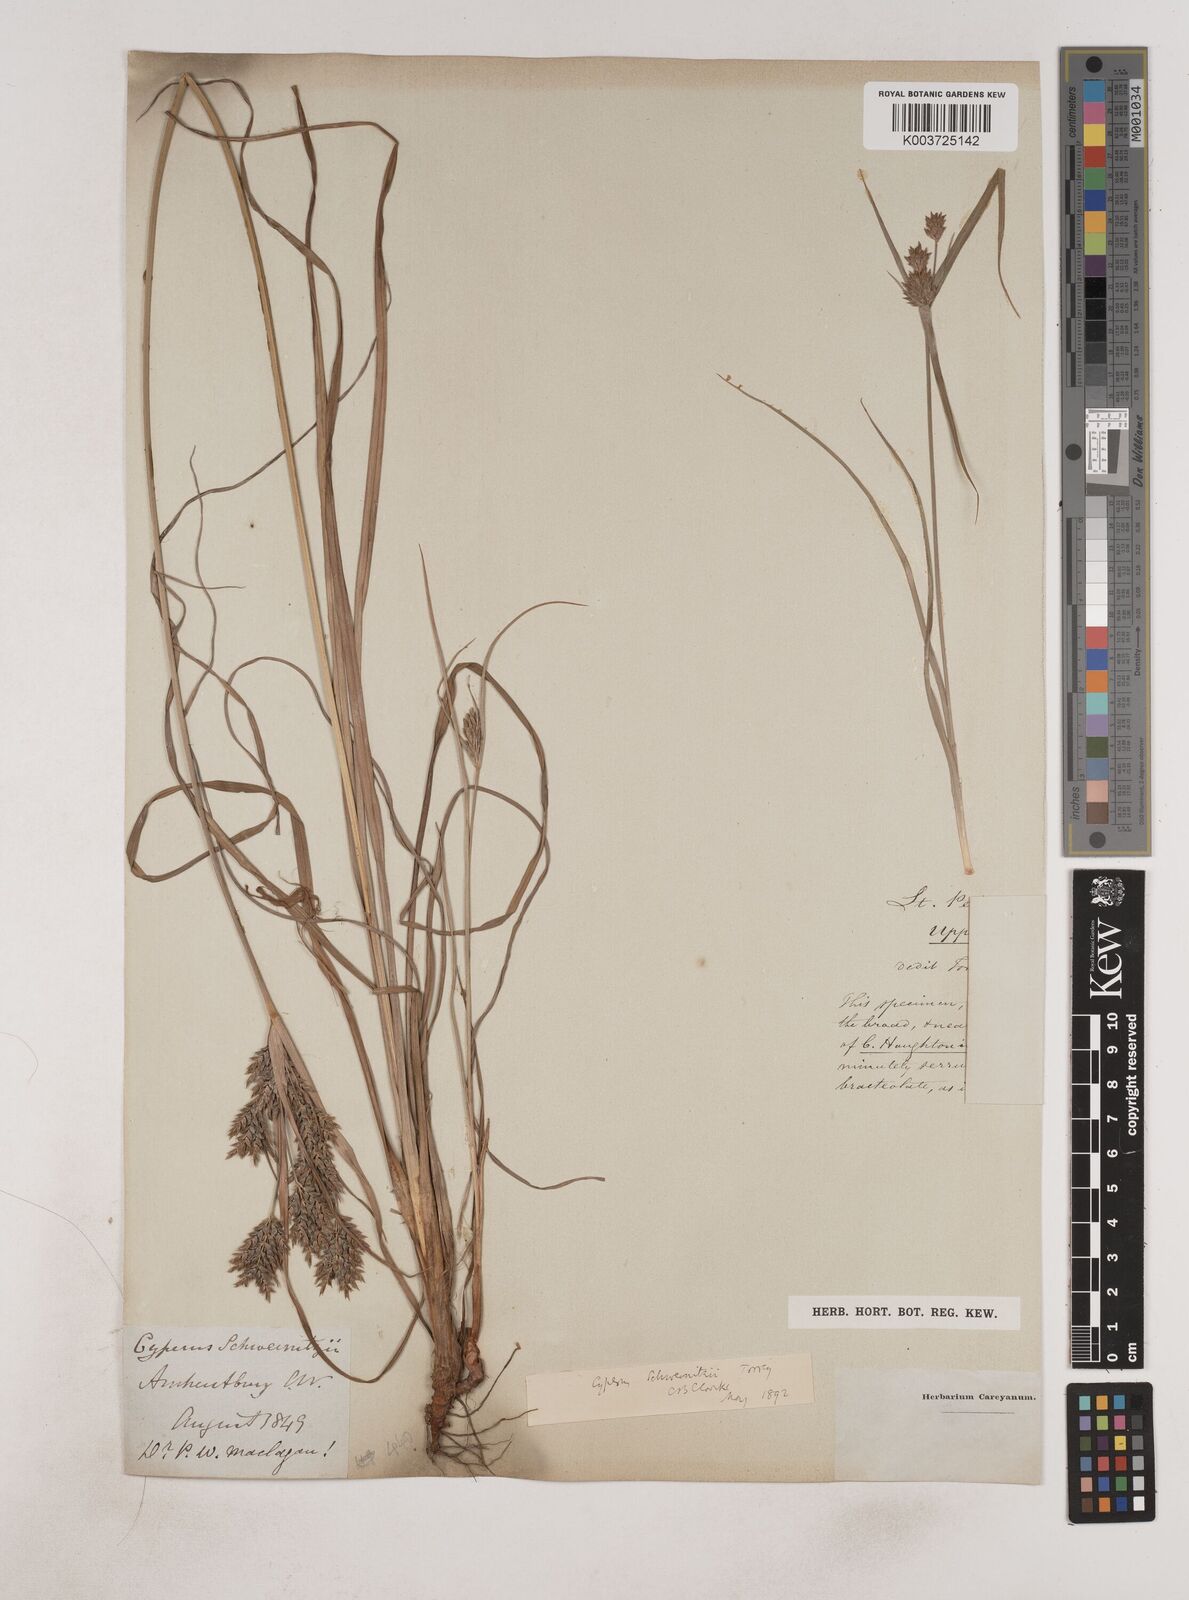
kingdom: Plantae
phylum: Tracheophyta
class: Liliopsida
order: Poales
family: Cyperaceae
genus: Cyperus
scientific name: Cyperus schweinitzii
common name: Schweinitz's cyperus
